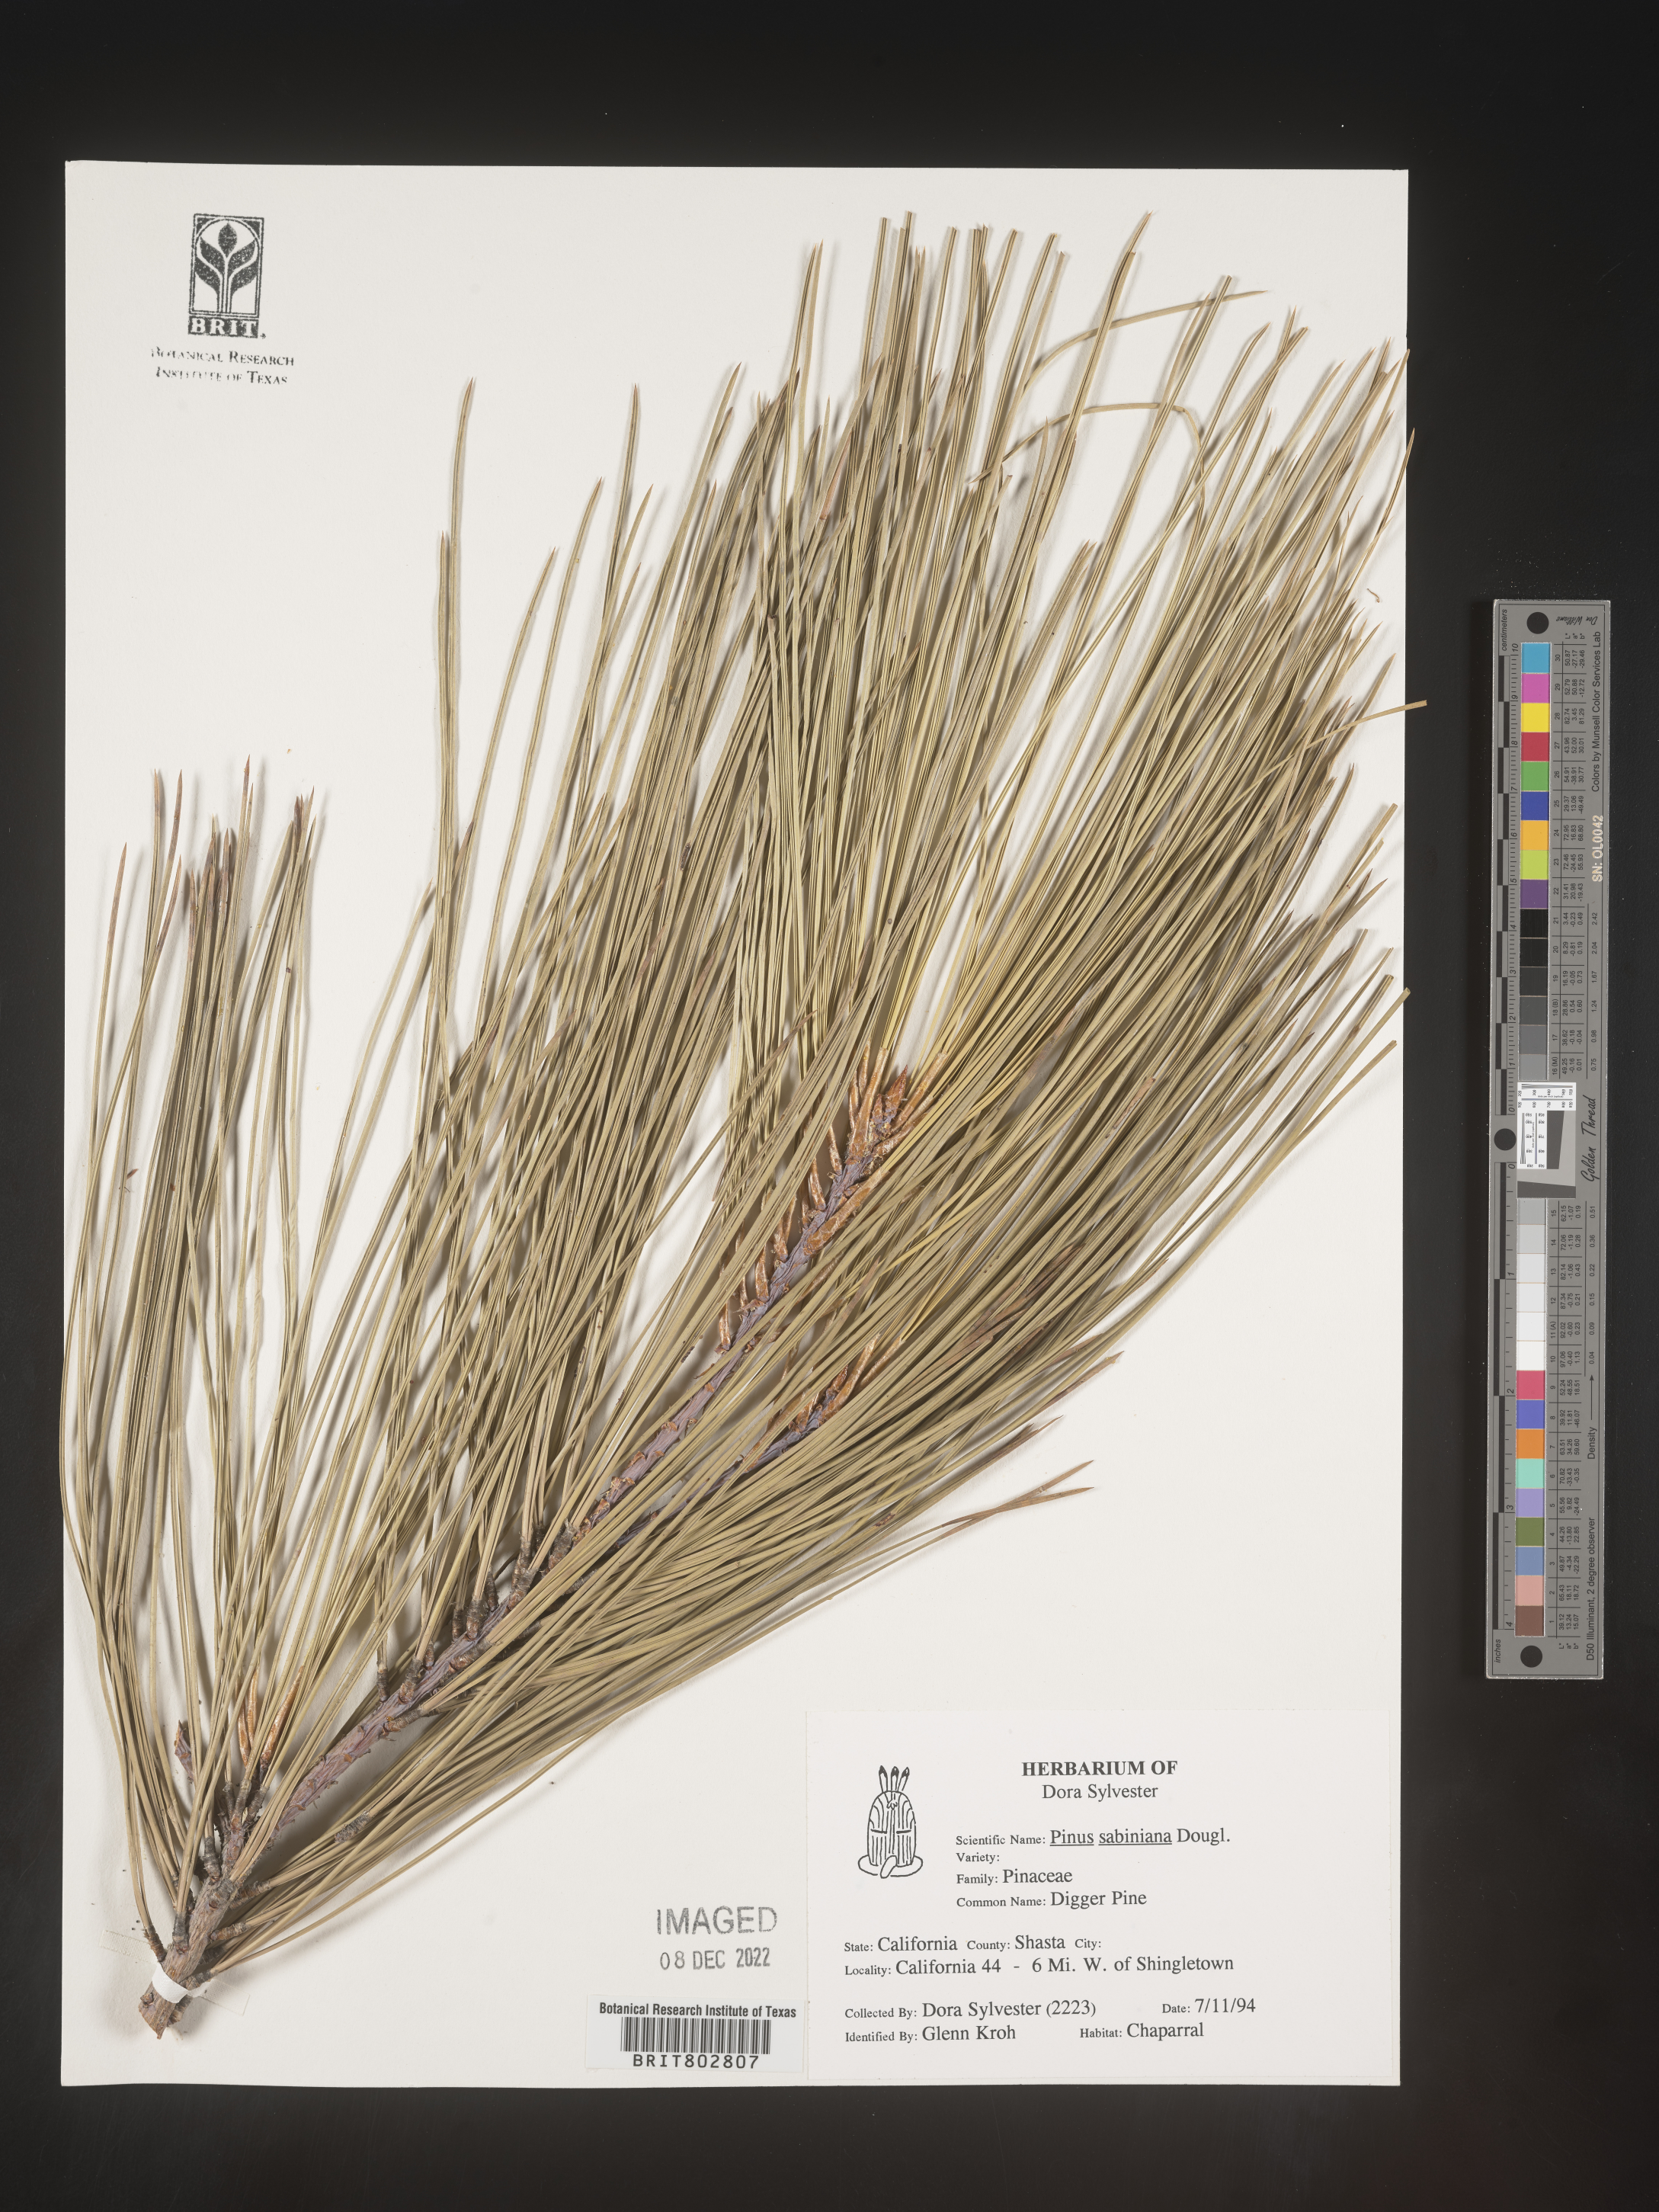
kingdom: Plantae
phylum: Tracheophyta
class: Pinopsida
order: Pinales
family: Pinaceae
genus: Pinus
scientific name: Pinus sabiniana
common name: Bull pine
